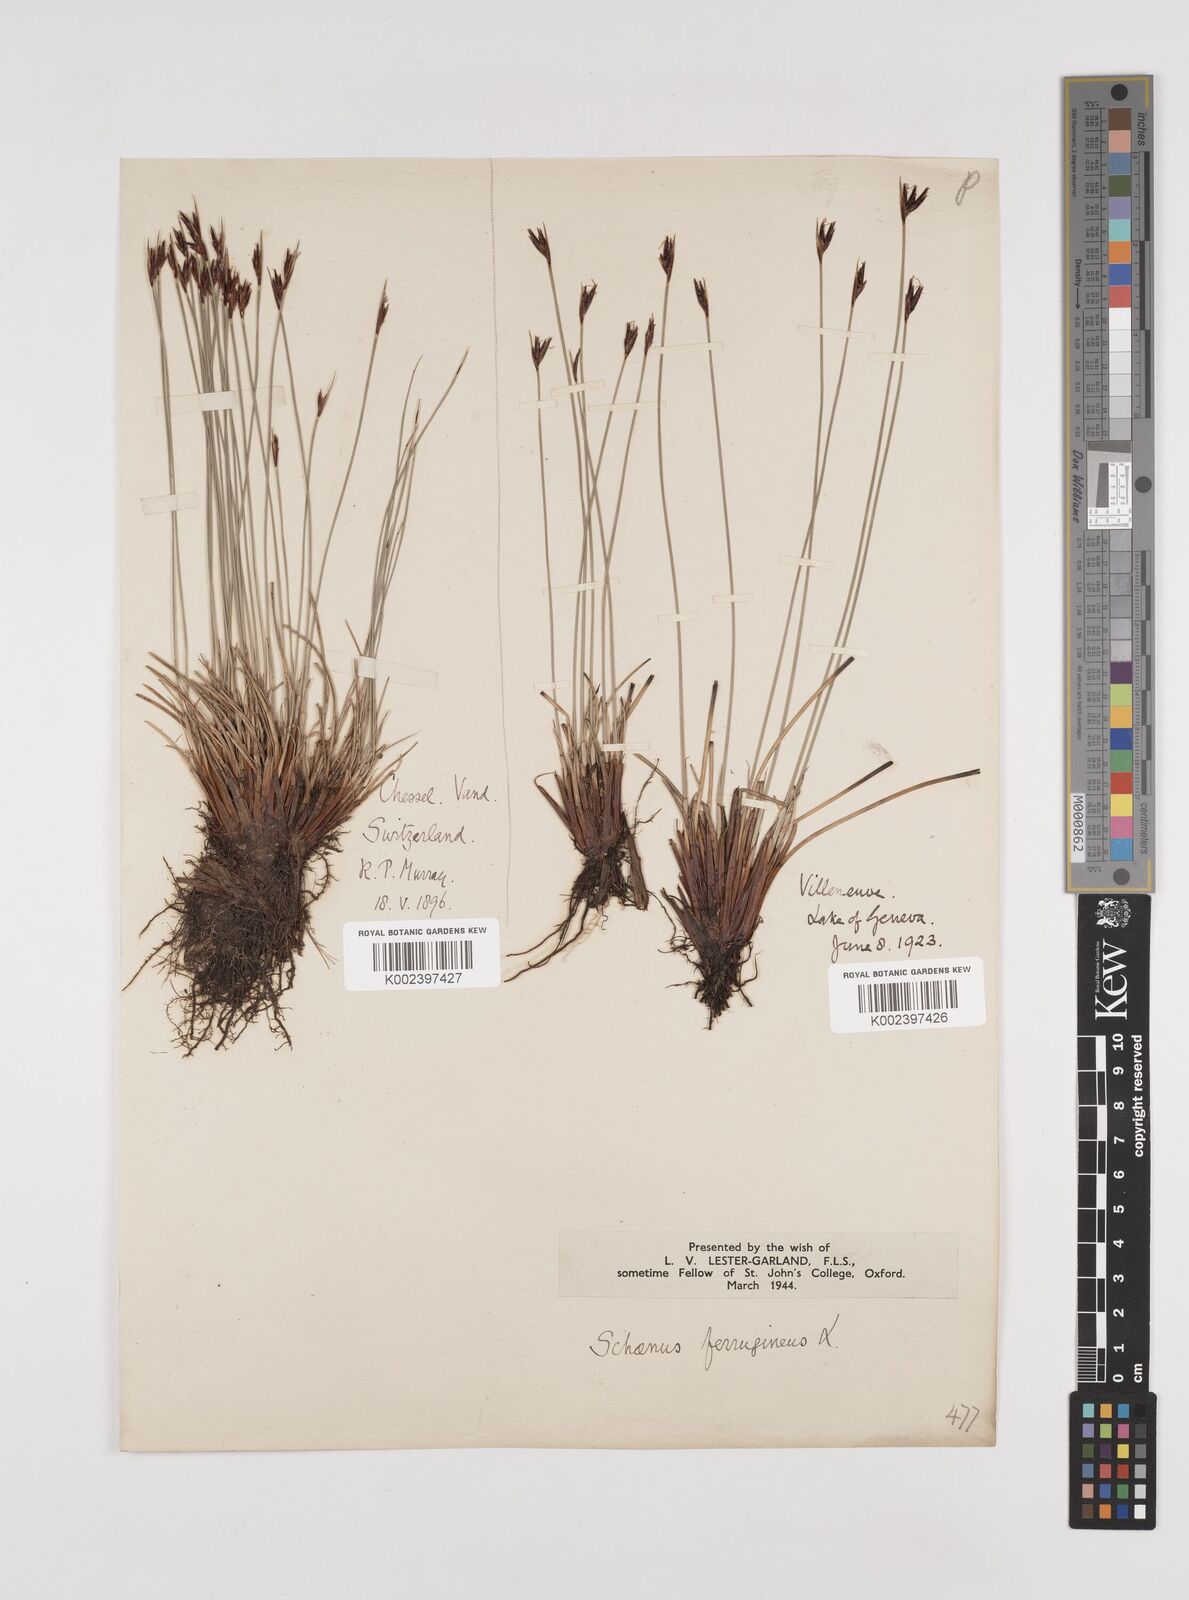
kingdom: Plantae
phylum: Tracheophyta
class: Liliopsida
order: Poales
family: Cyperaceae
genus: Schoenus
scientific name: Schoenus ferrugineus
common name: Brown bog-rush
